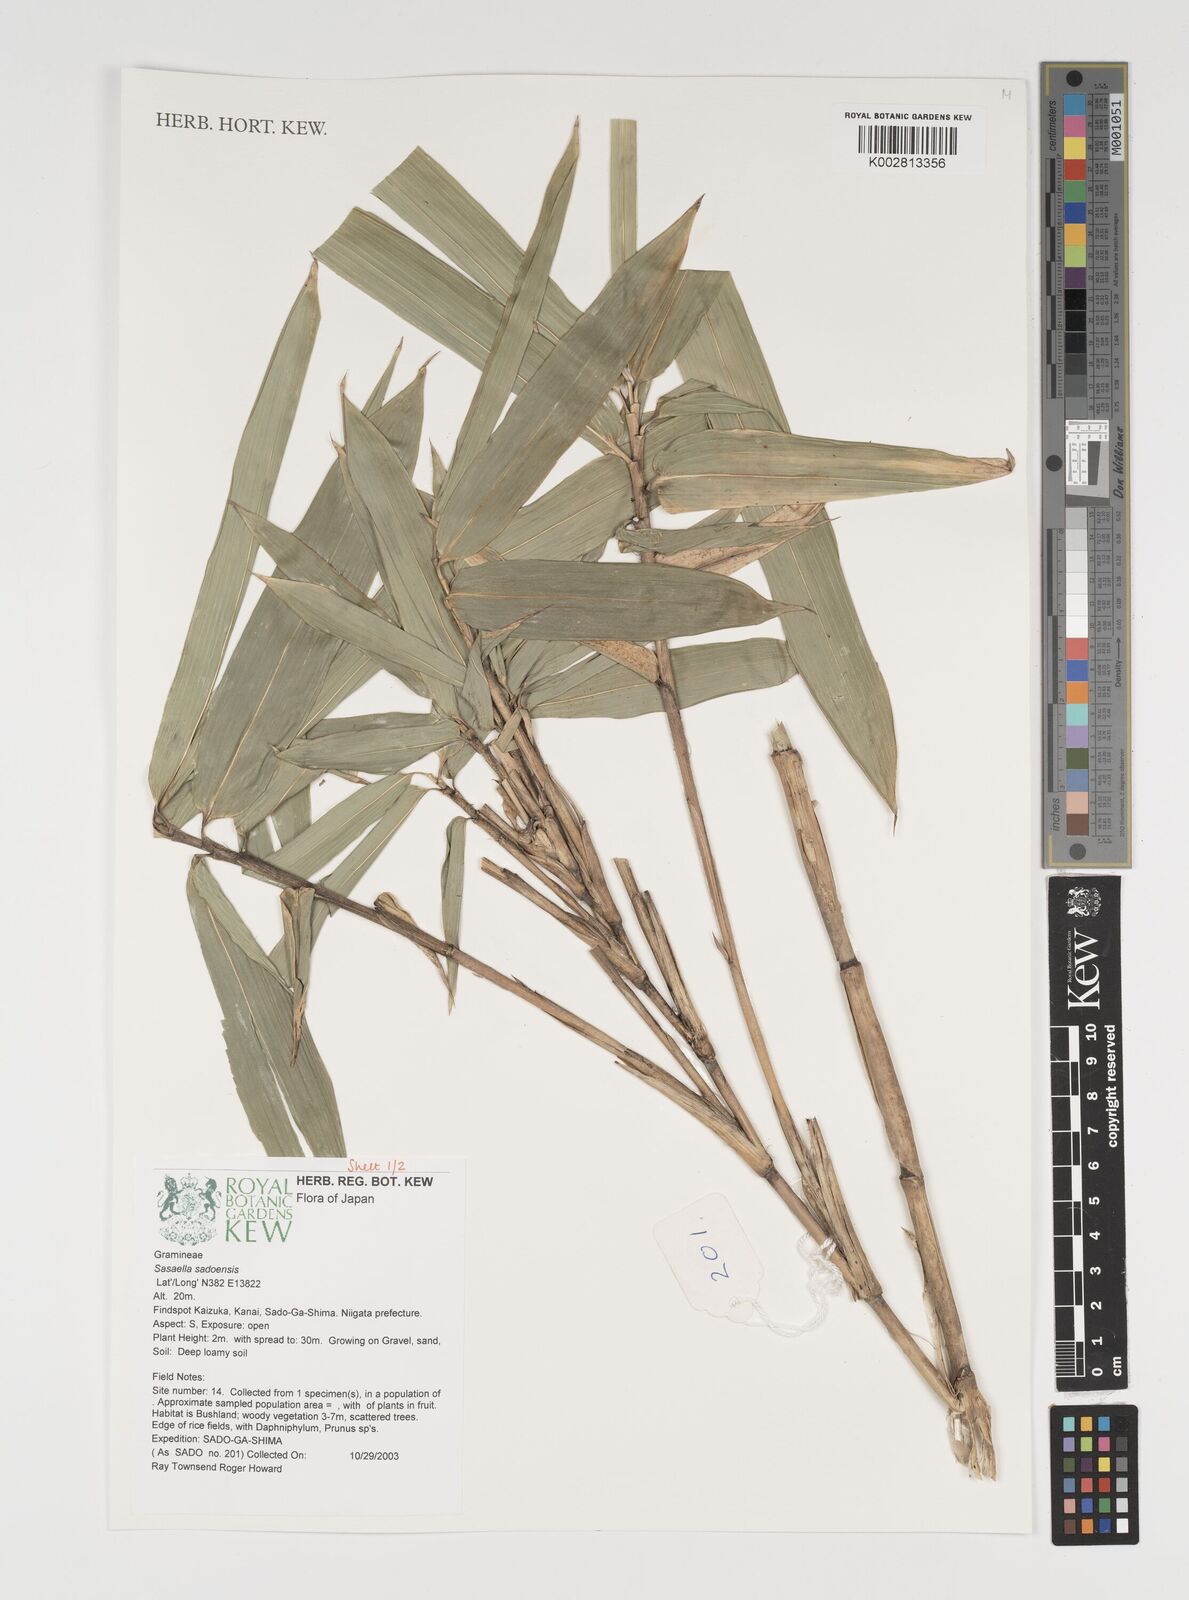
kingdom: Plantae
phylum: Tracheophyta
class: Liliopsida
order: Poales
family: Poaceae
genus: Sasa
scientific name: Sasa
